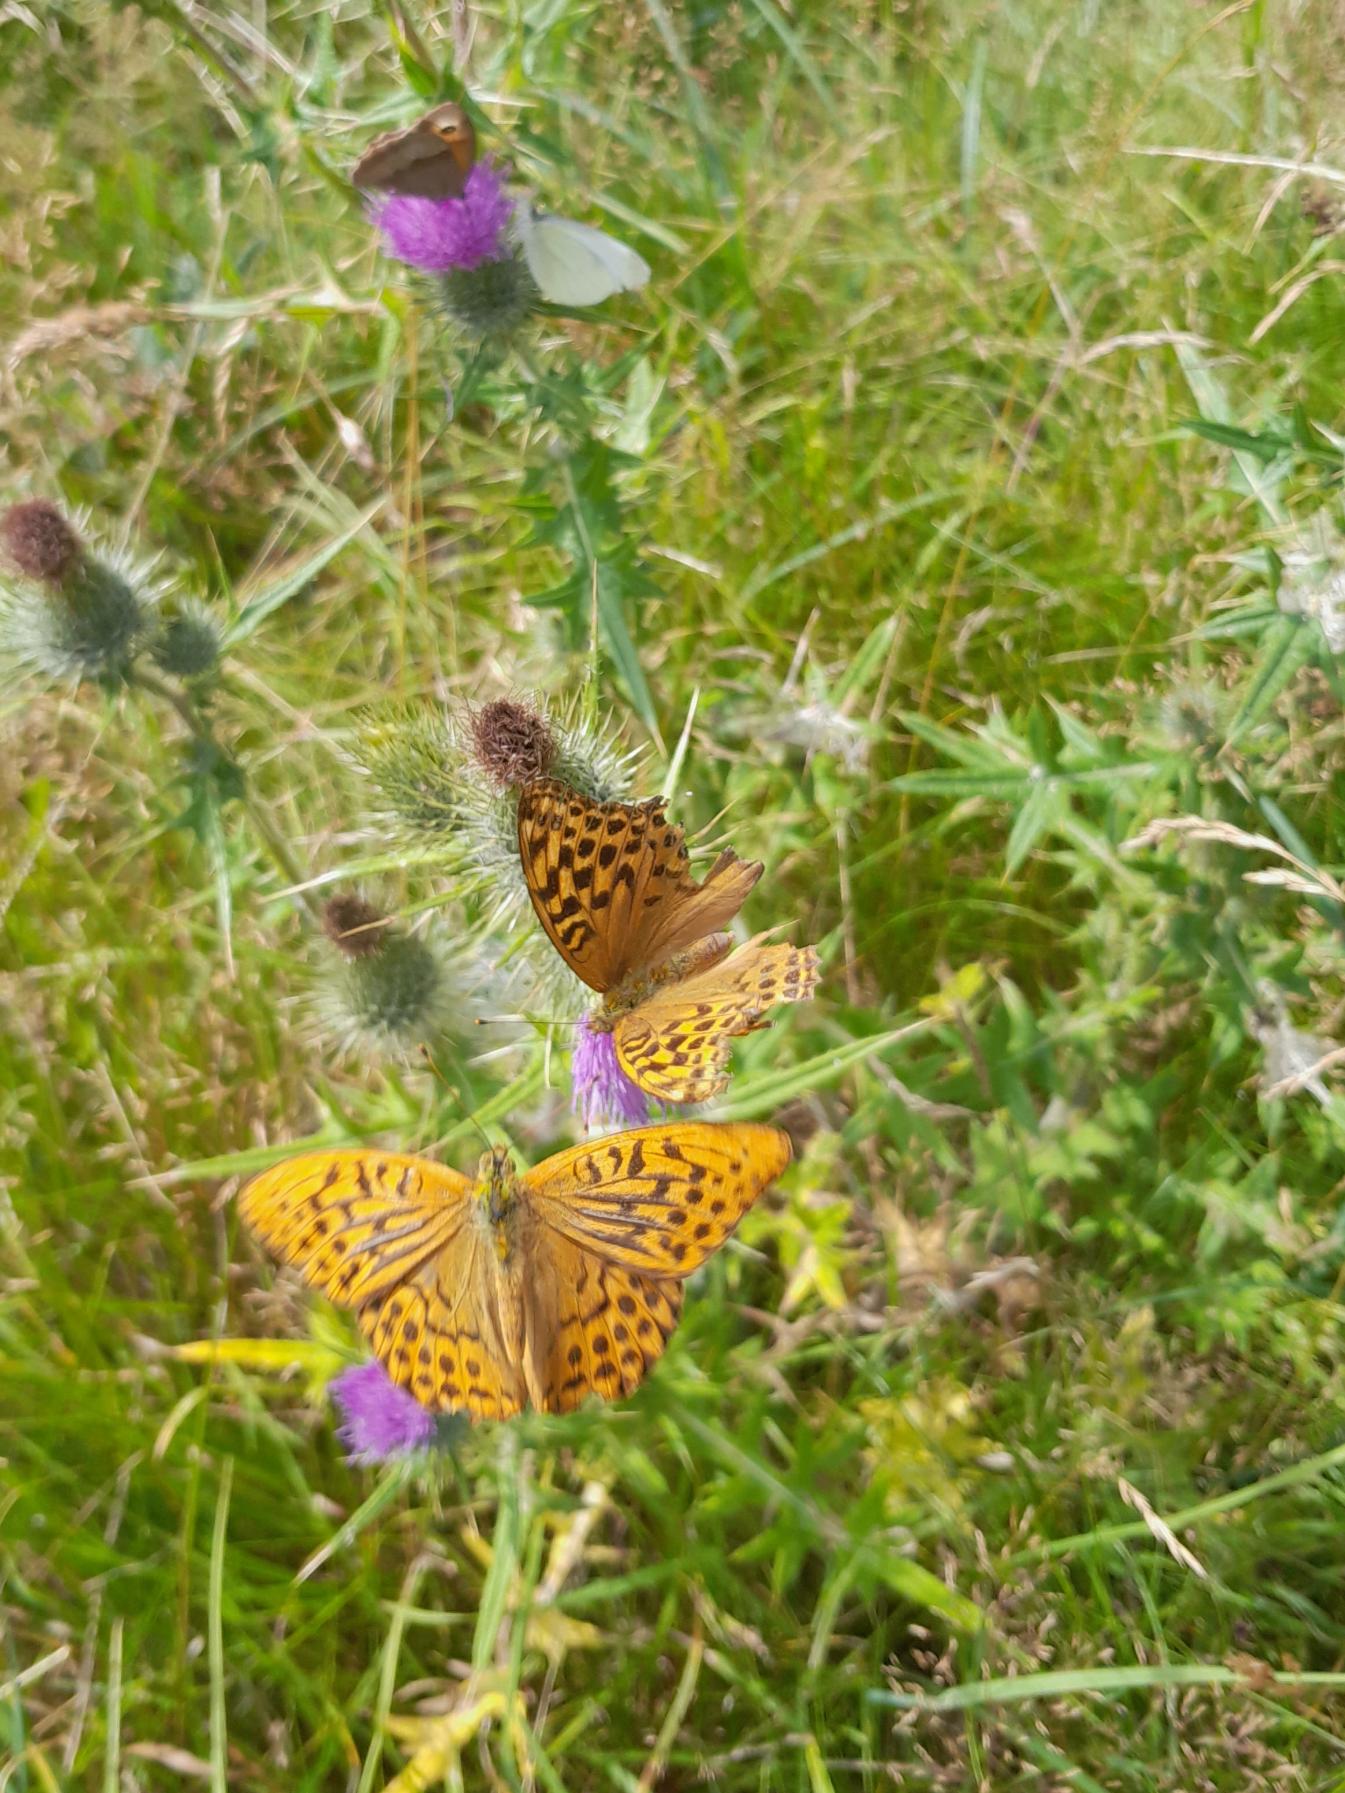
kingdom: Animalia
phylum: Arthropoda
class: Insecta
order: Lepidoptera
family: Nymphalidae
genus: Argynnis
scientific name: Argynnis paphia
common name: Kejserkåbe
